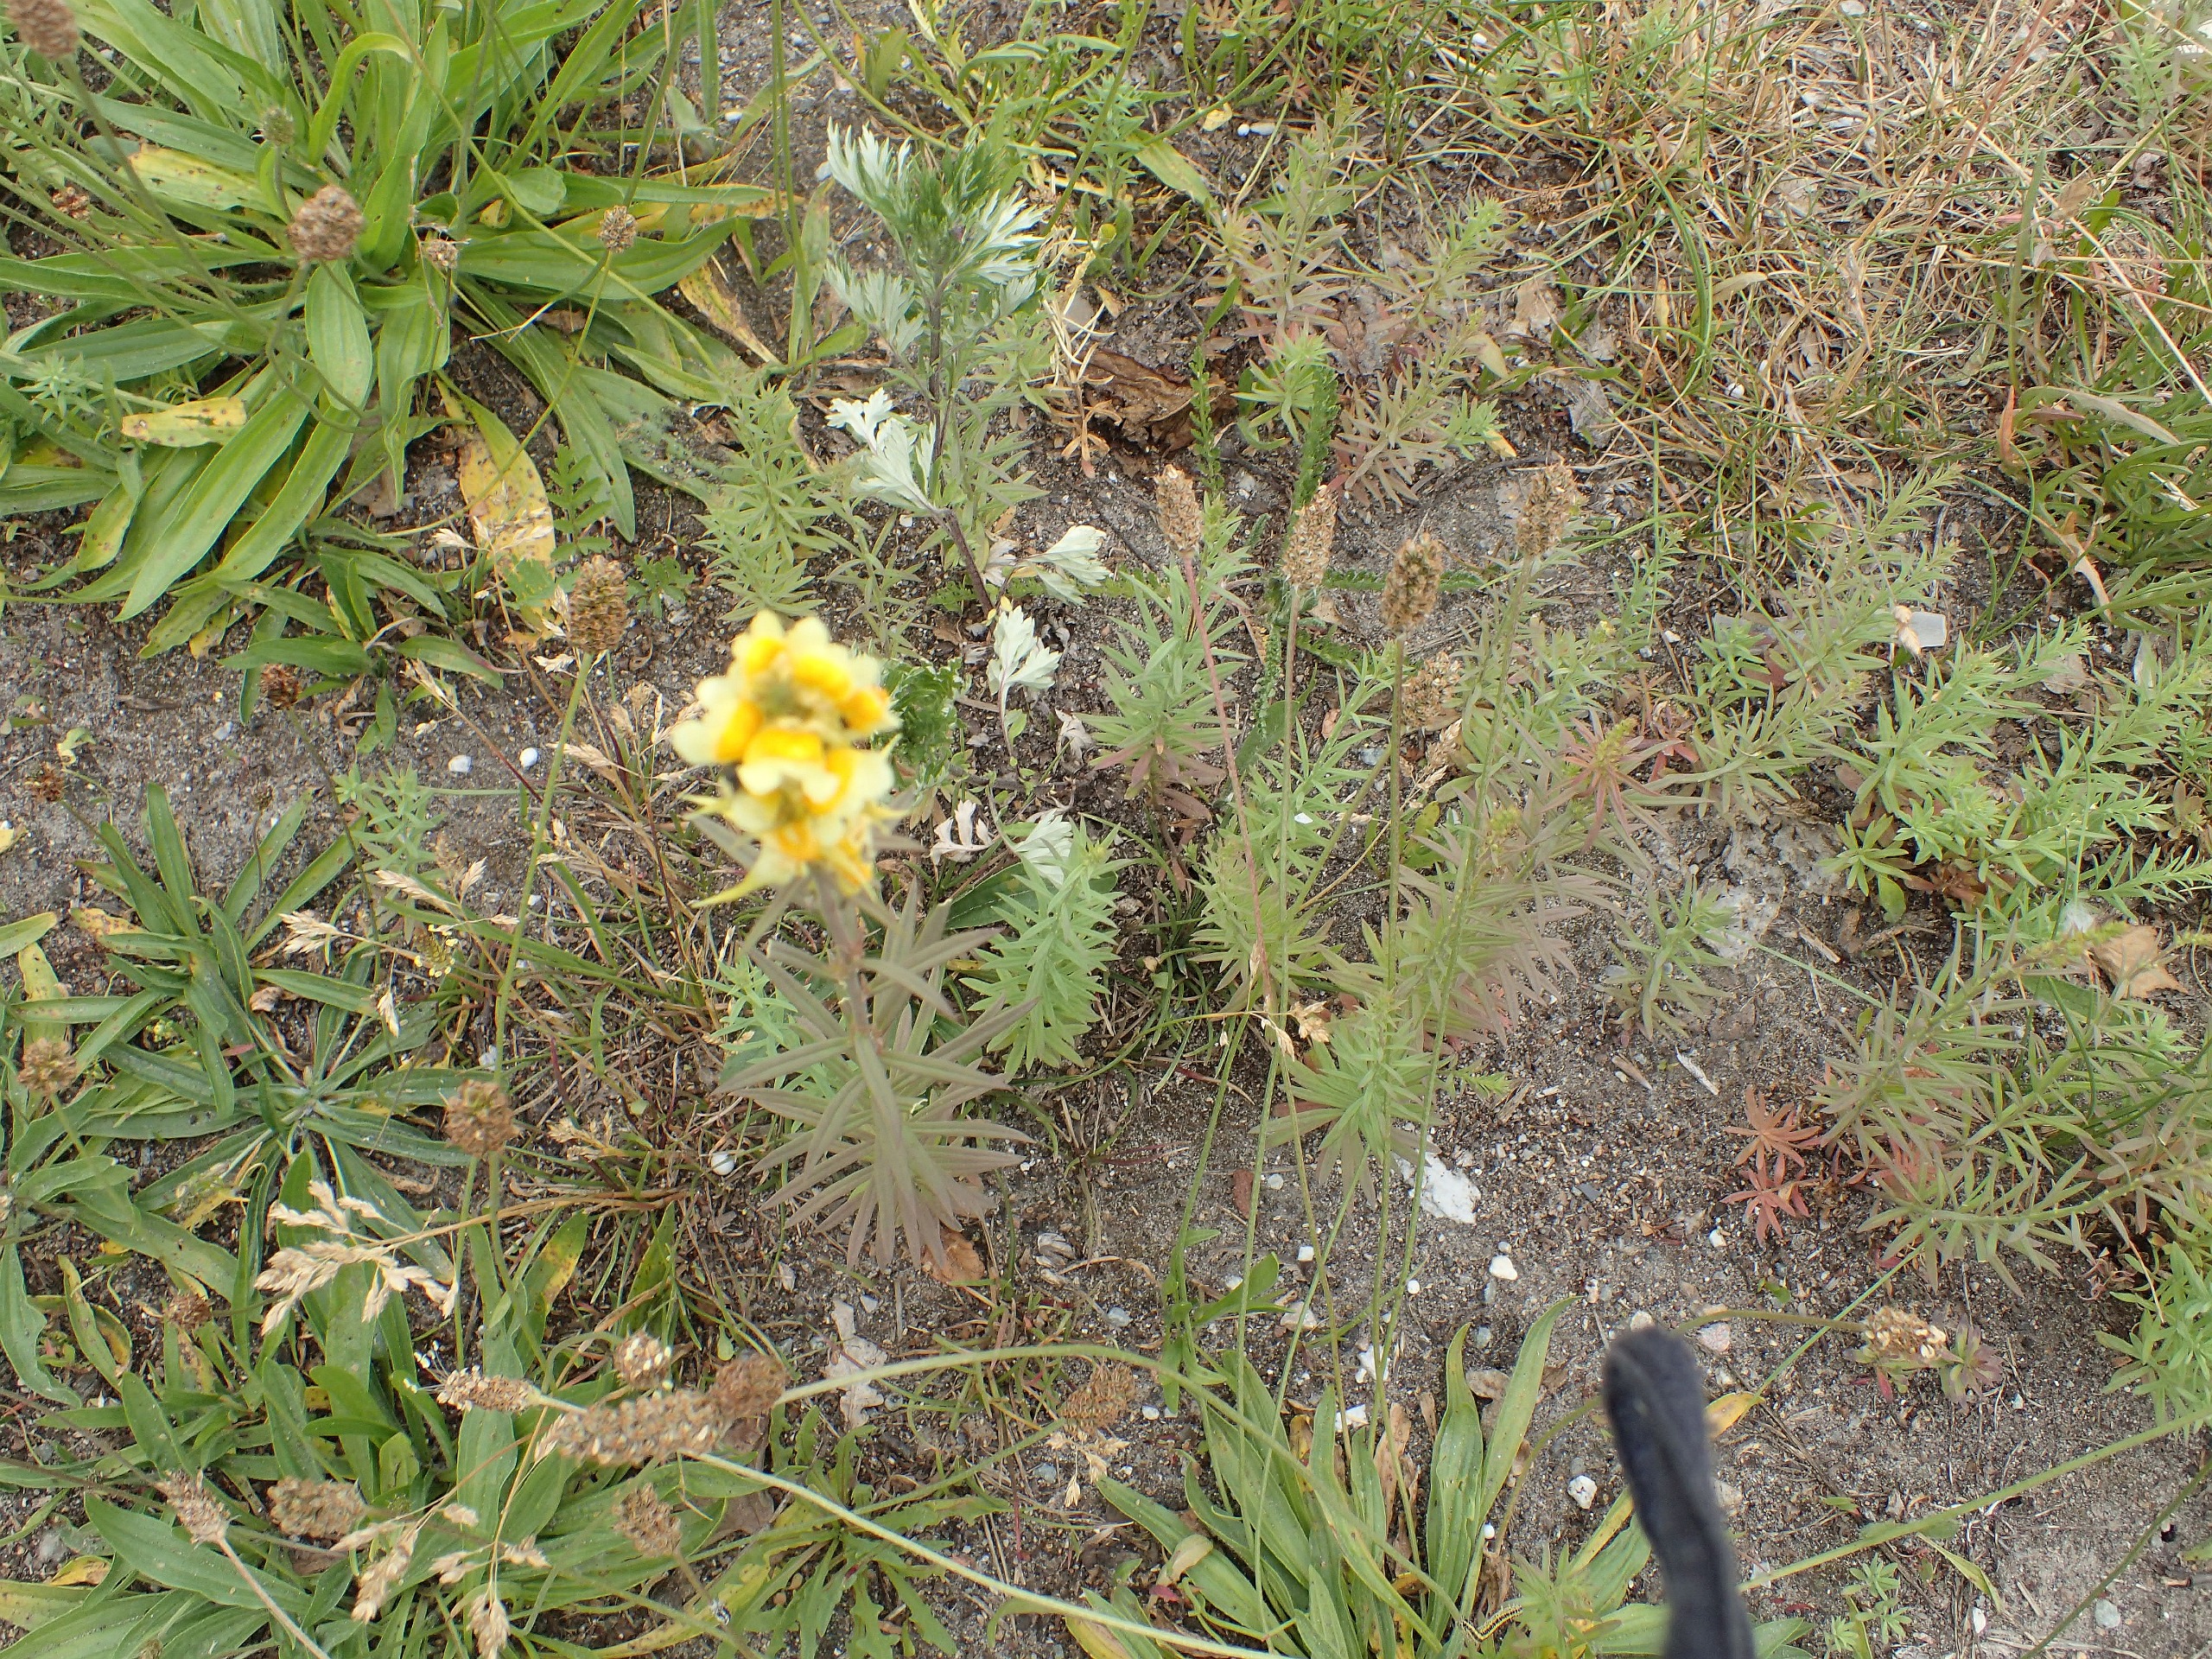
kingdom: Plantae
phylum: Tracheophyta
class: Magnoliopsida
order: Lamiales
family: Plantaginaceae
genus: Linaria
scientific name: Linaria vulgaris
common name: Almindelig torskemund
